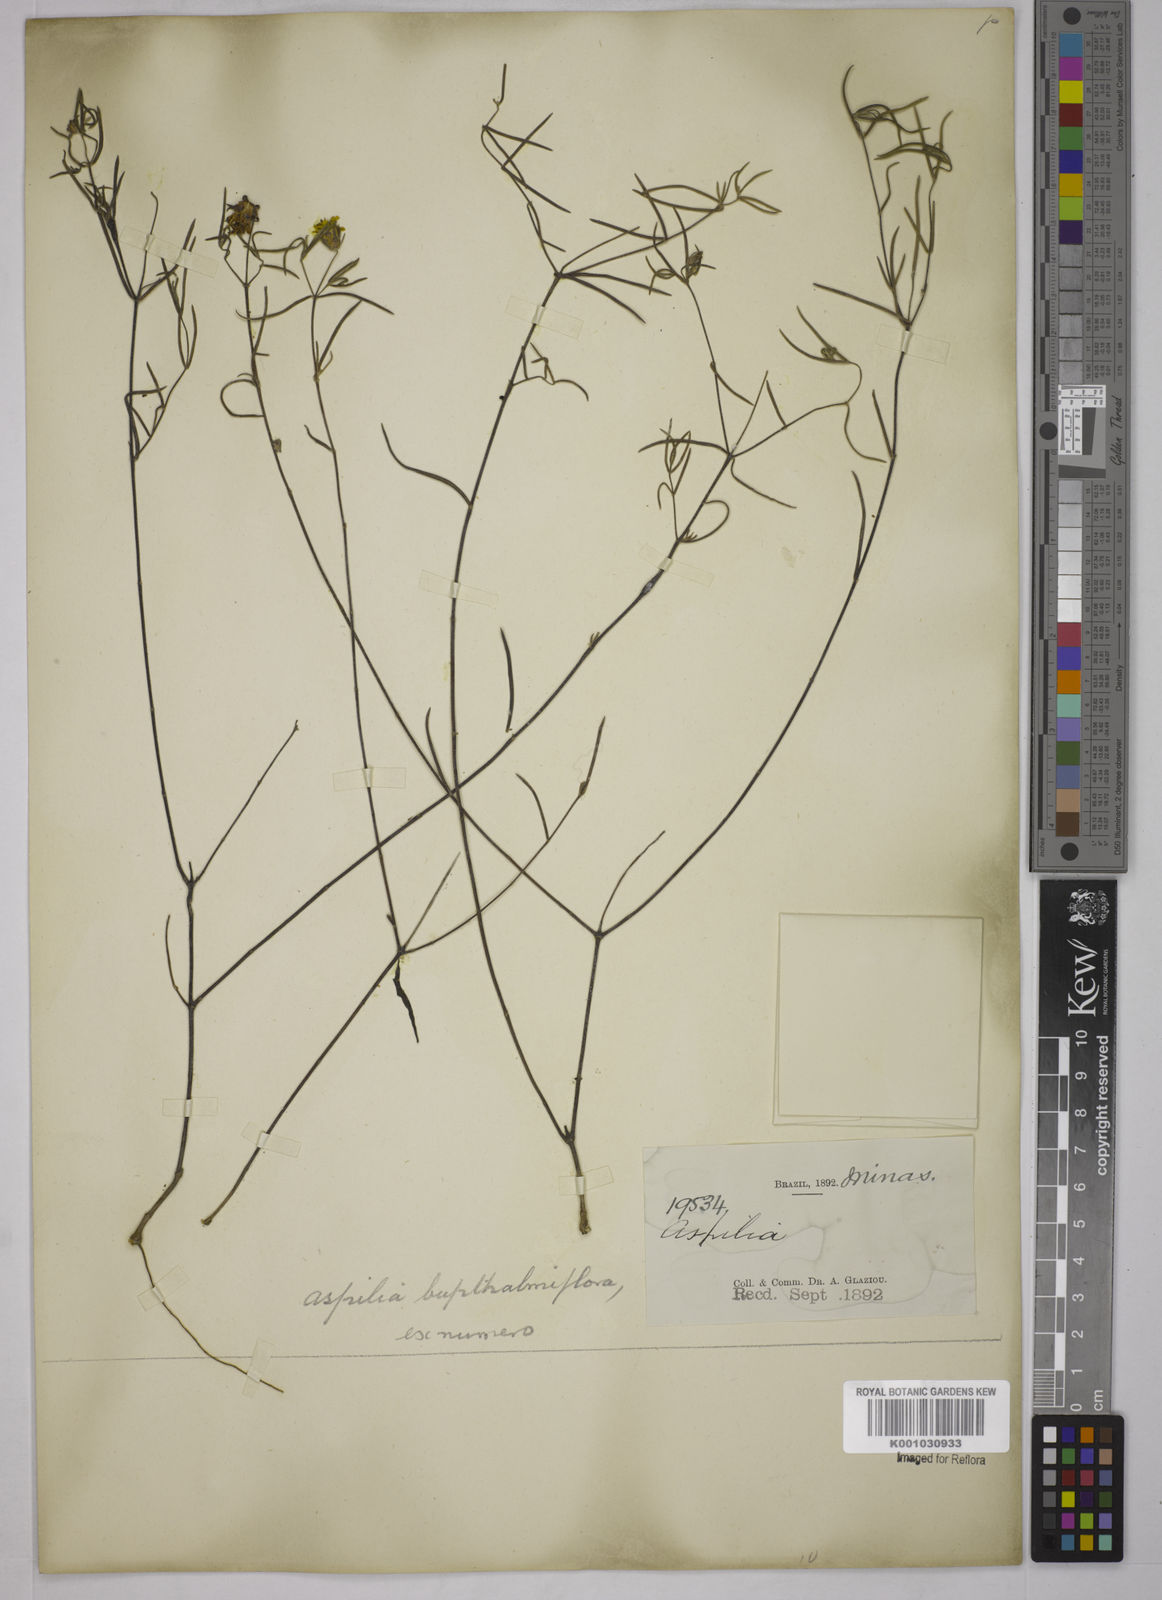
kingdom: Plantae
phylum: Tracheophyta
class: Magnoliopsida
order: Asterales
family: Asteraceae
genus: Wedelia
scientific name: Wedelia montevidensis
